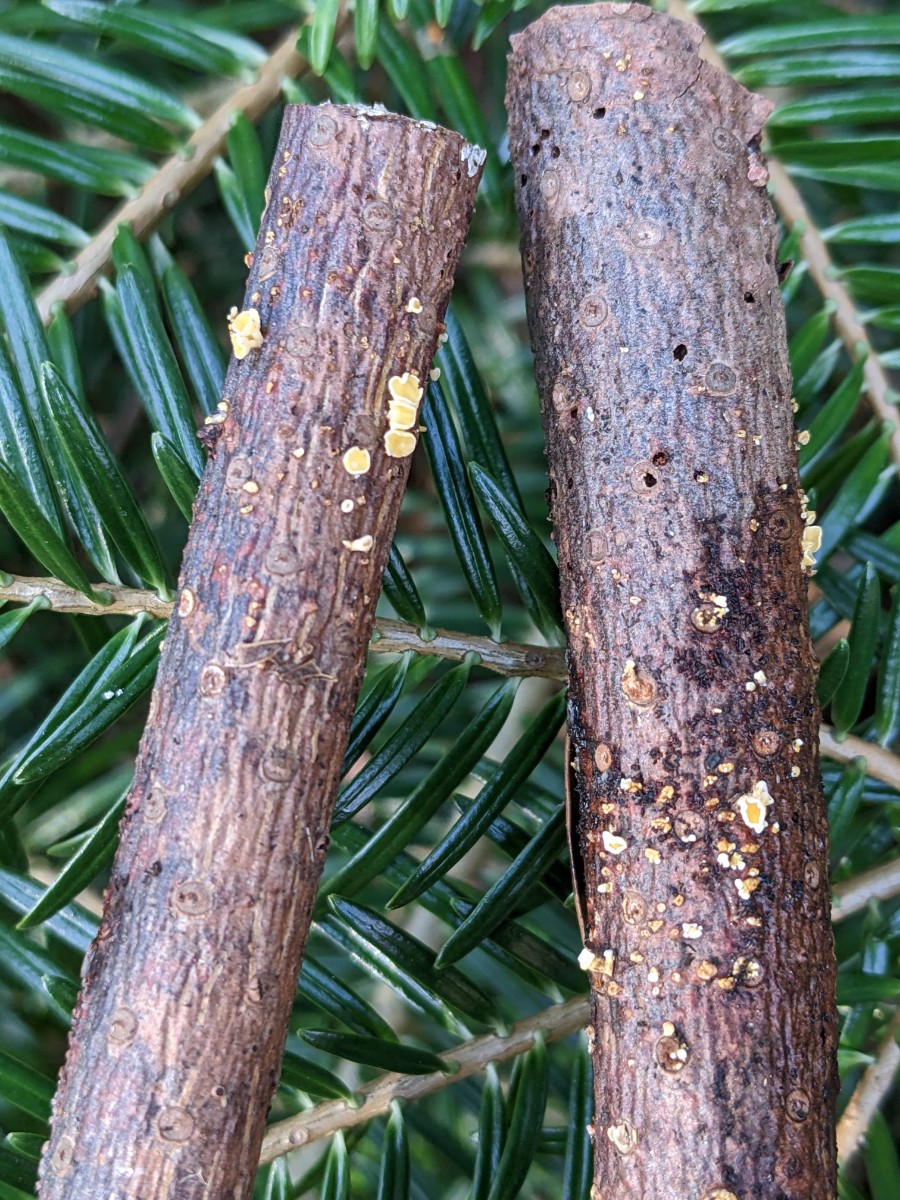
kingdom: Fungi
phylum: Ascomycota
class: Leotiomycetes
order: Helotiales
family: Lachnaceae
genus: Lachnellula
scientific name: Lachnellula calyciformis
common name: ædelgran-frynseskive
